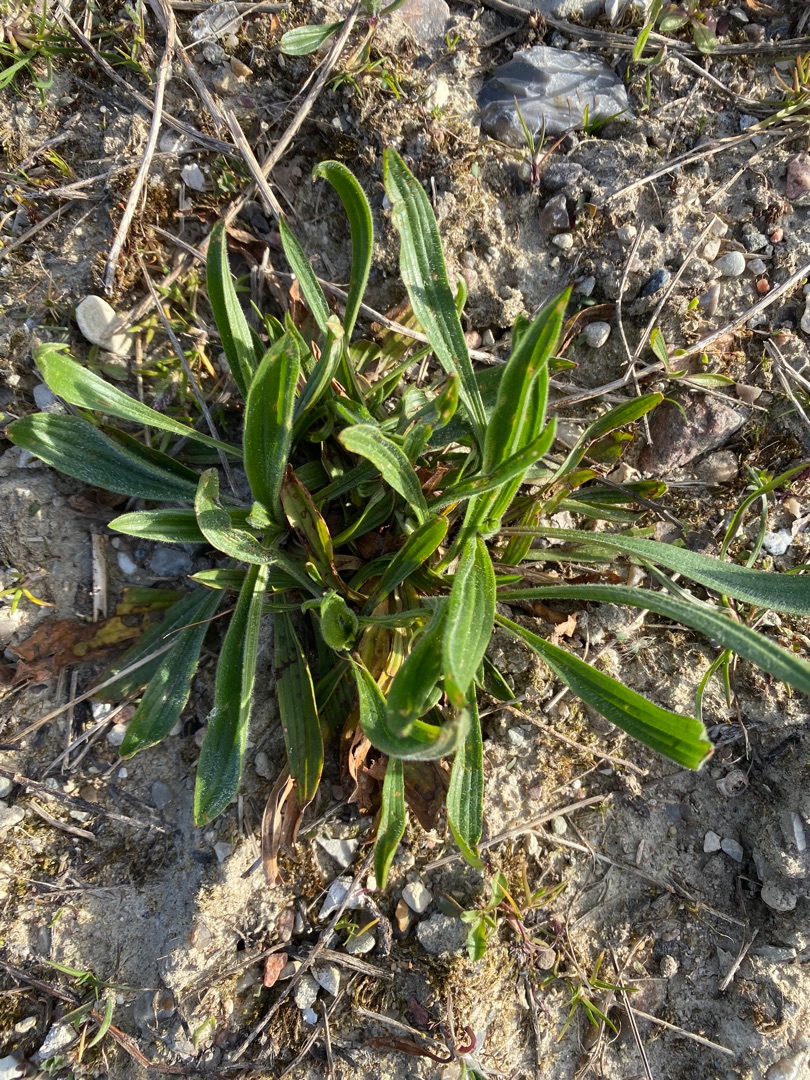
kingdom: Plantae
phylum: Tracheophyta
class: Magnoliopsida
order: Lamiales
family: Plantaginaceae
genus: Plantago
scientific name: Plantago lanceolata
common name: Lancet-vejbred
